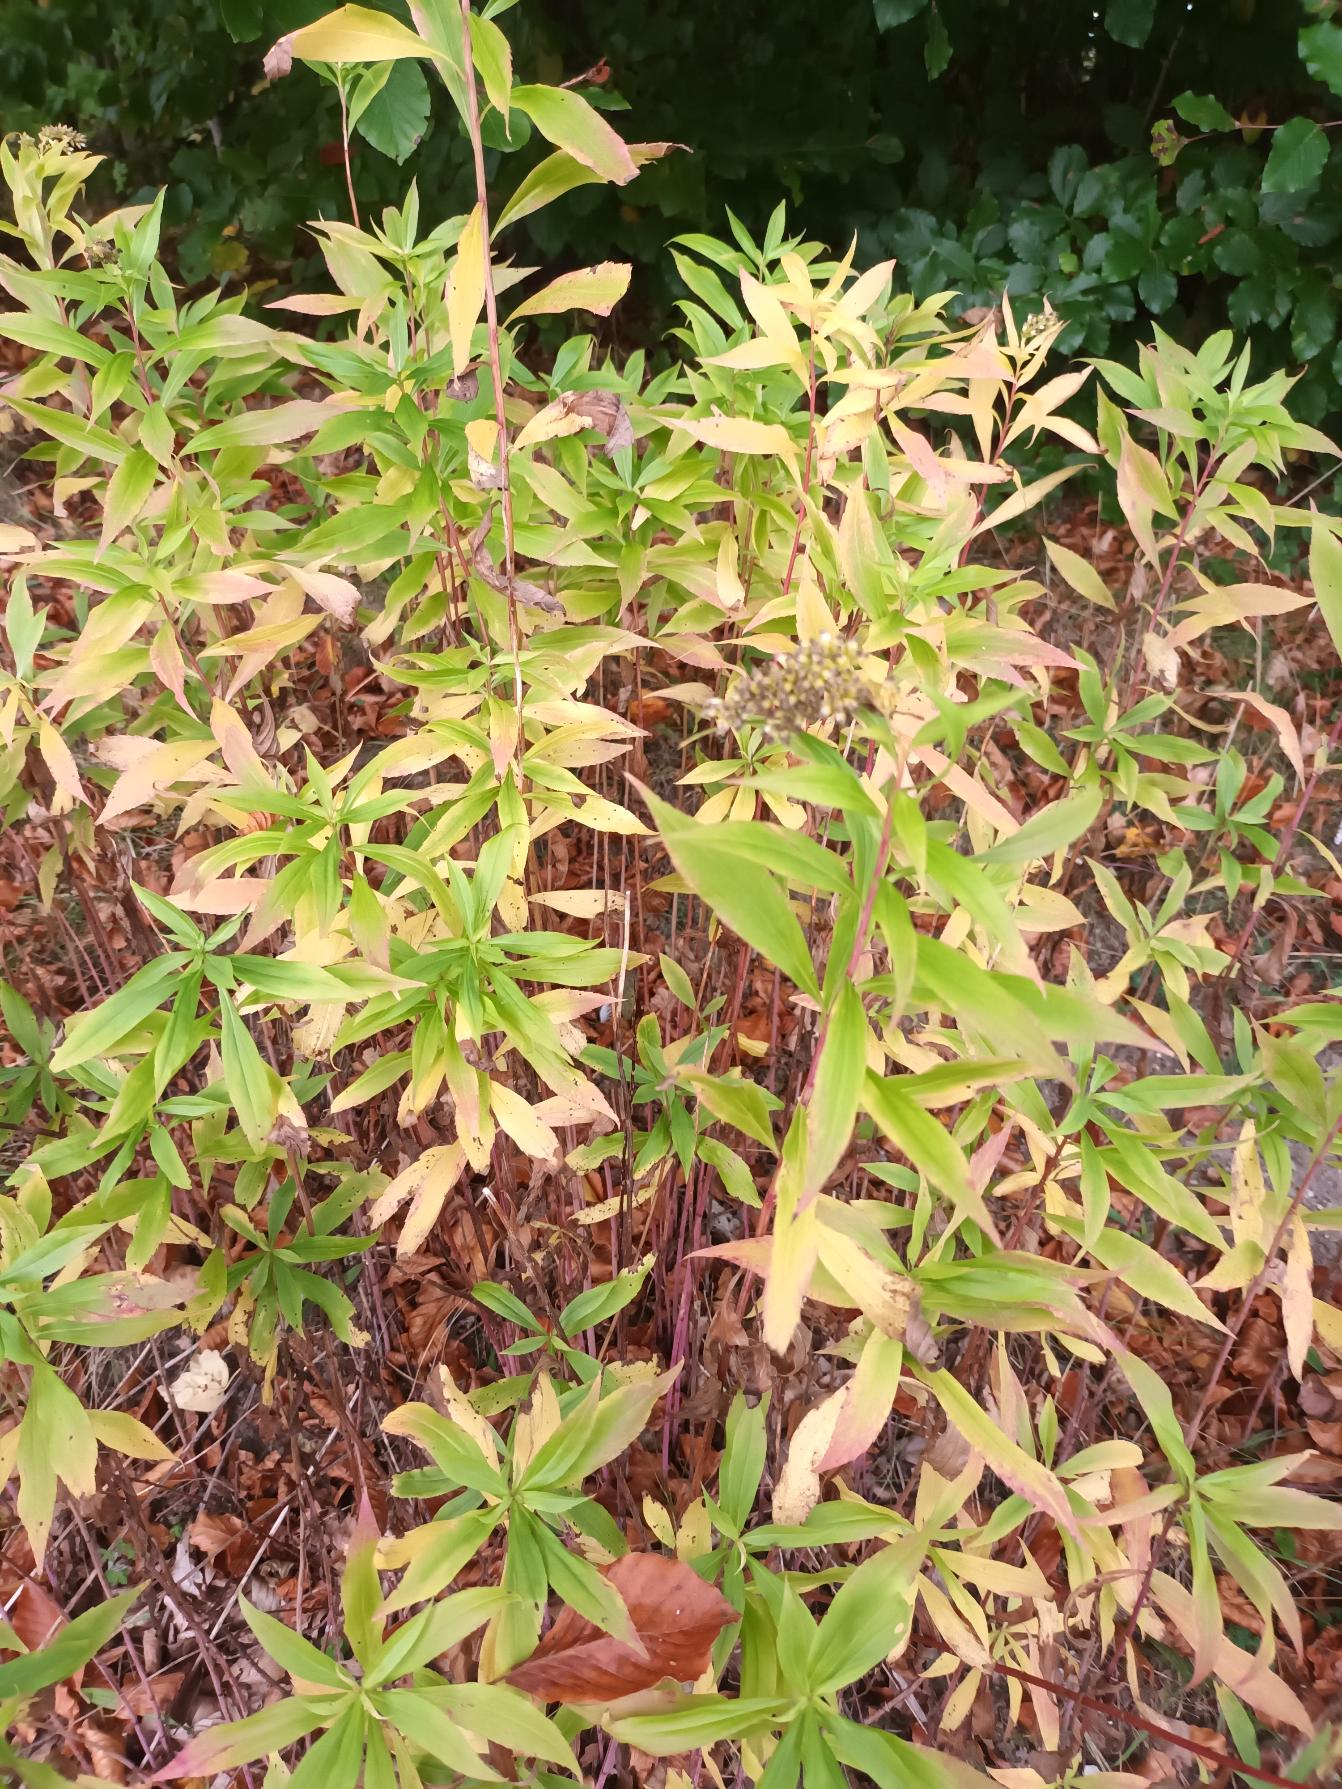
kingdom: Plantae
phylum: Tracheophyta
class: Magnoliopsida
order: Asterales
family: Asteraceae
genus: Solidago
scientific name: Solidago gigantea
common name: Sildig gyldenris
